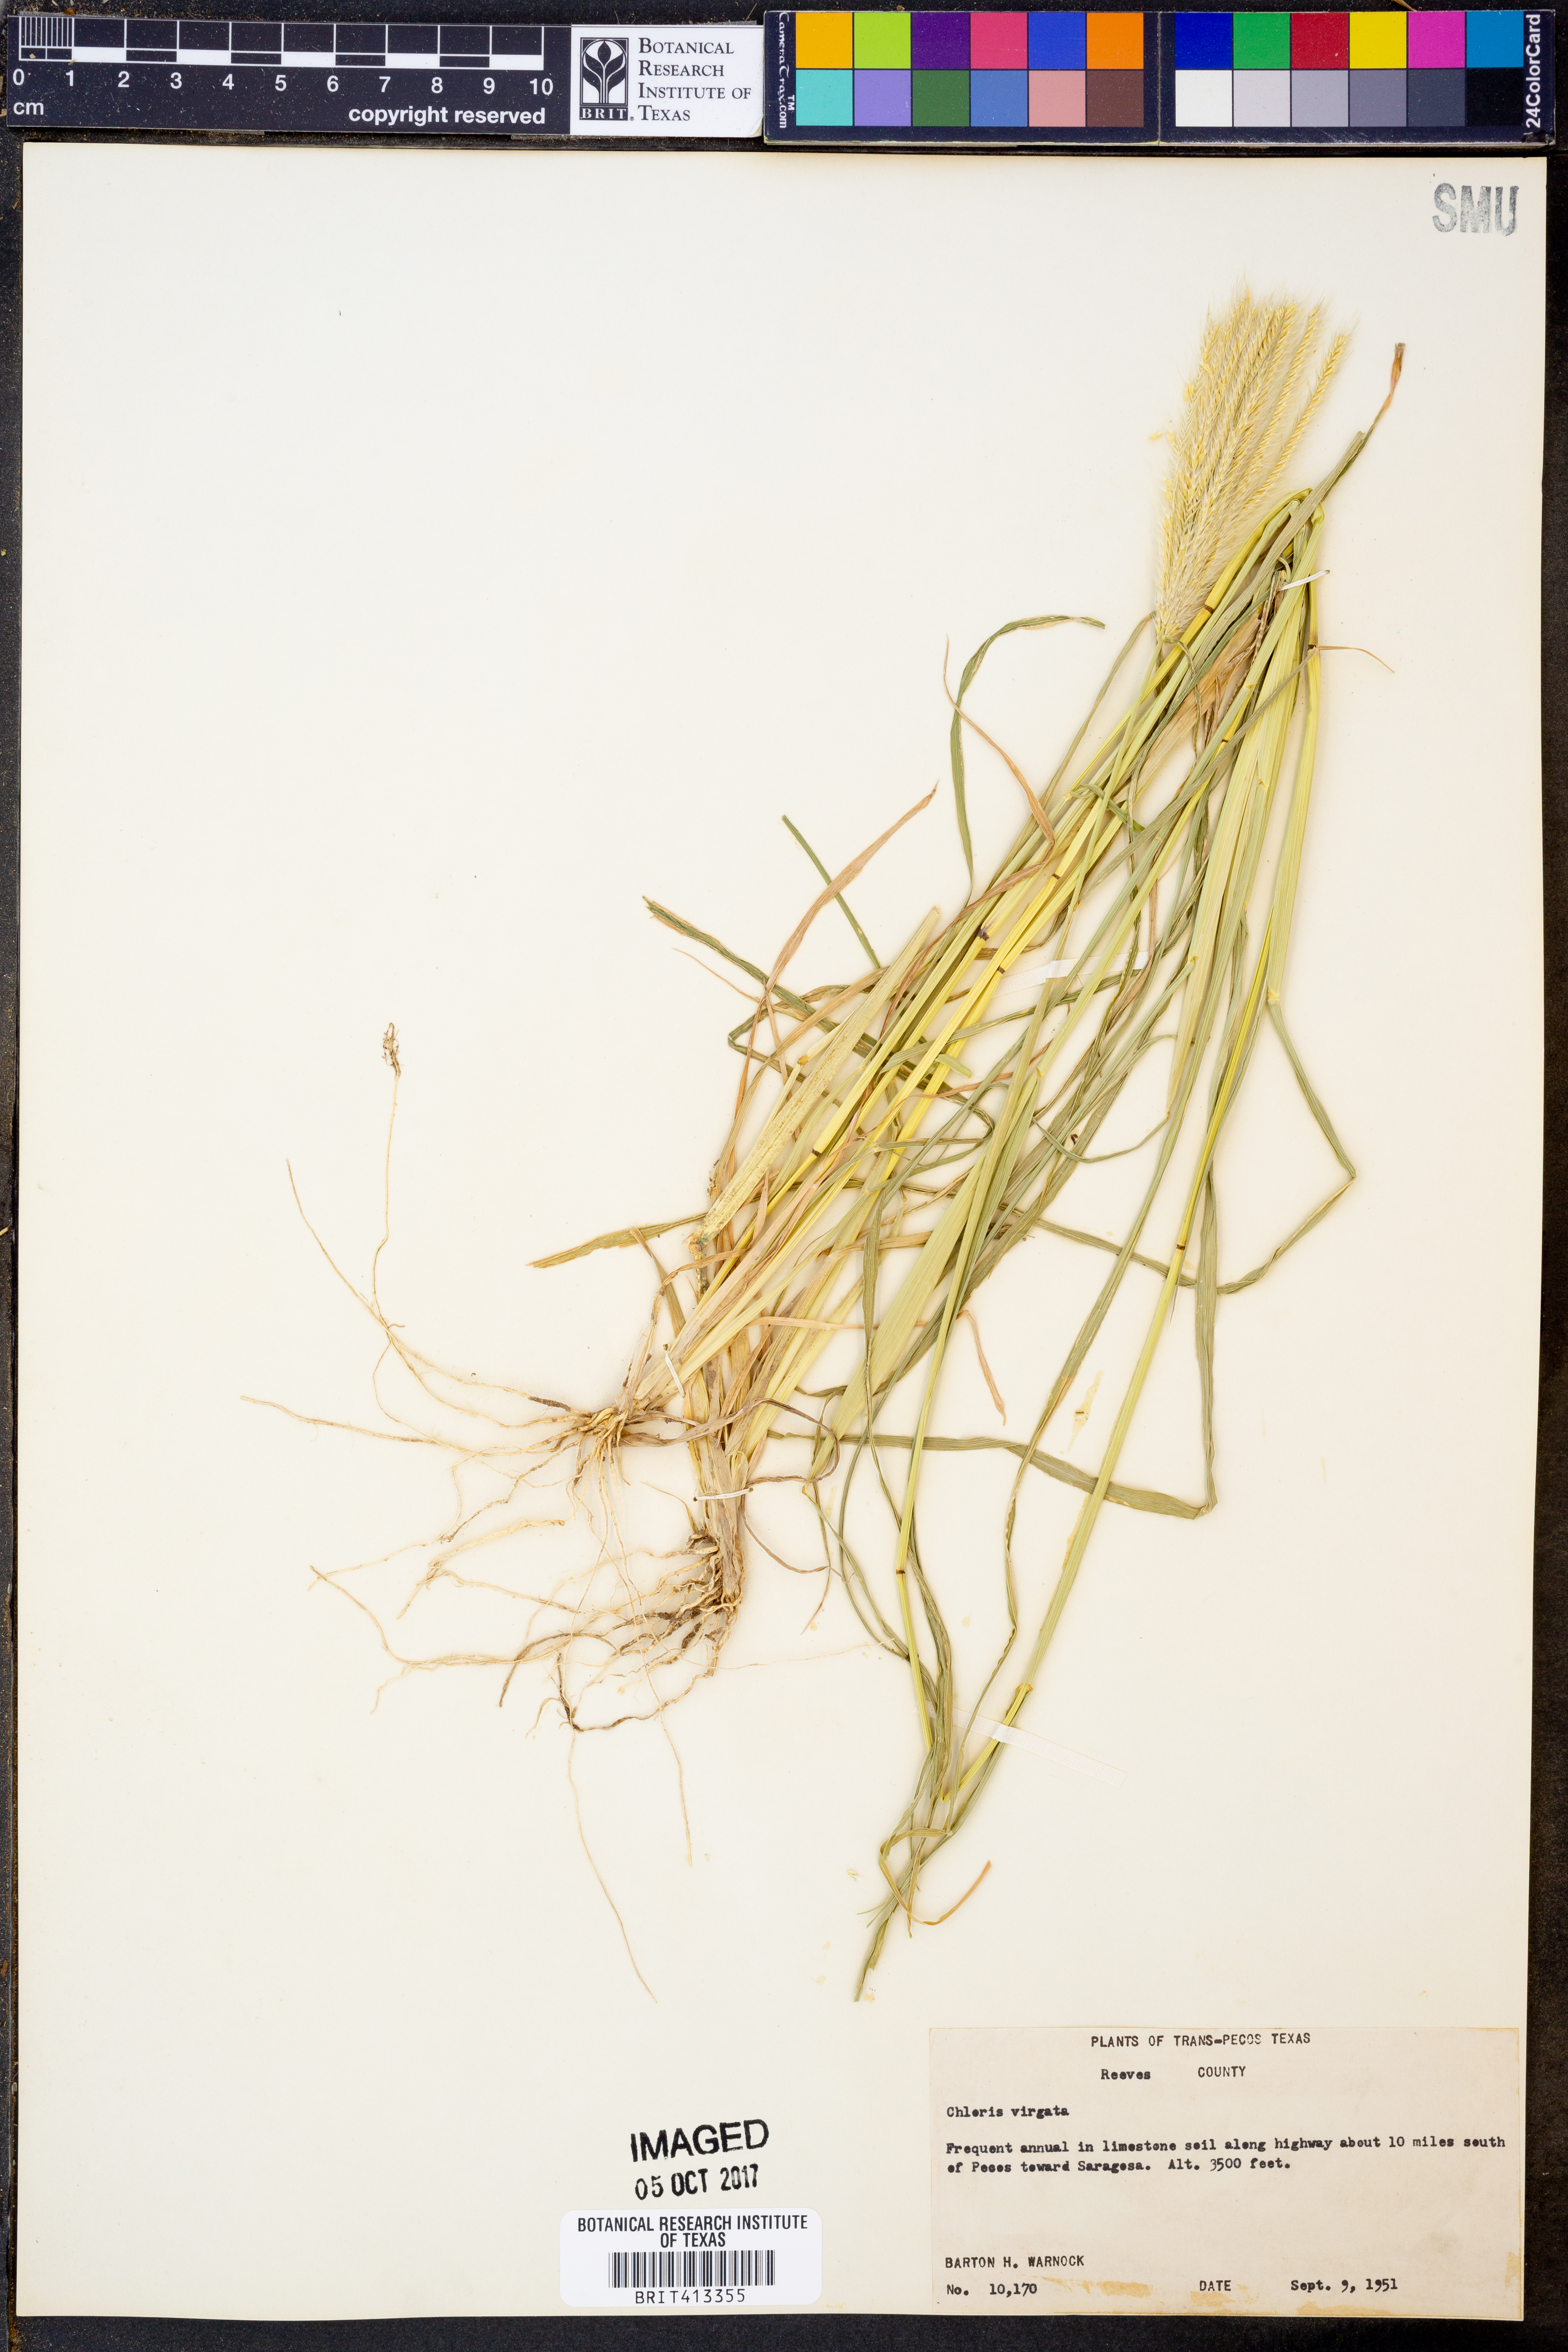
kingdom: Plantae
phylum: Tracheophyta
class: Liliopsida
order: Poales
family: Poaceae
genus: Chloris
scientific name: Chloris virgata
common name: Feathery rhodes-grass
